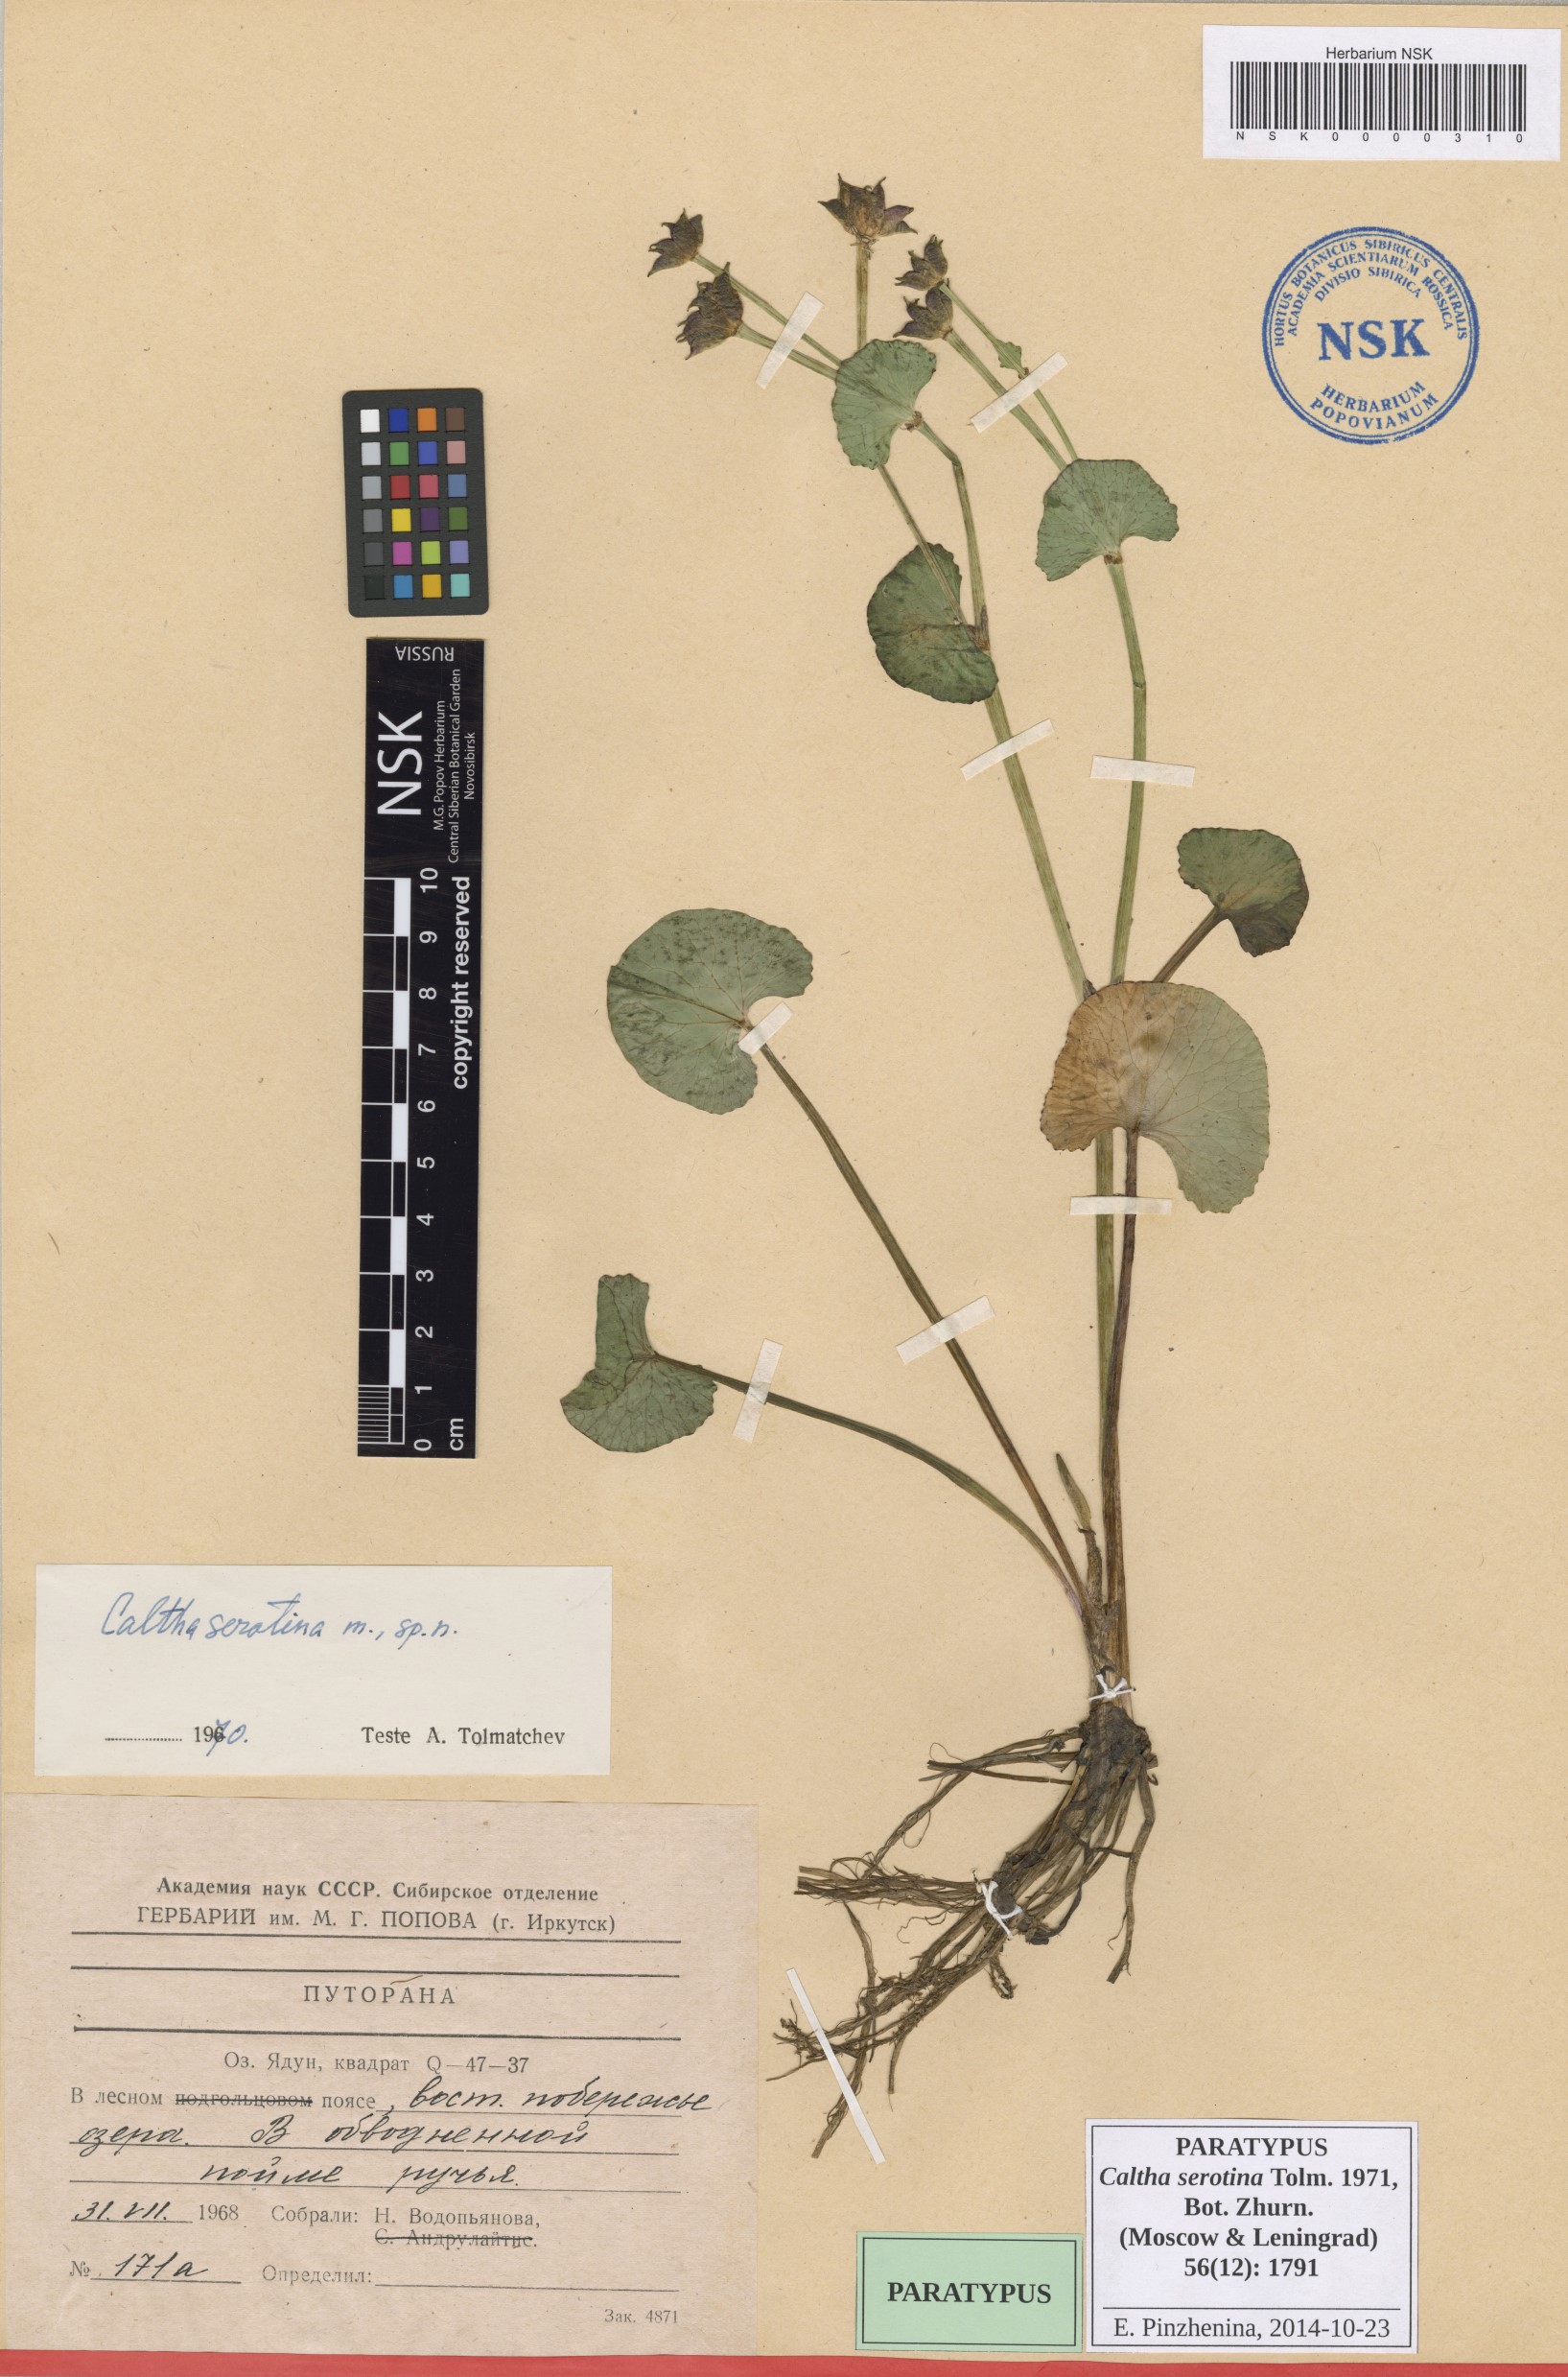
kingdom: Plantae
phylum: Tracheophyta
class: Magnoliopsida
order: Ranunculales
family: Ranunculaceae
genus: Caltha
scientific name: Caltha palustris
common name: Marsh marigold
